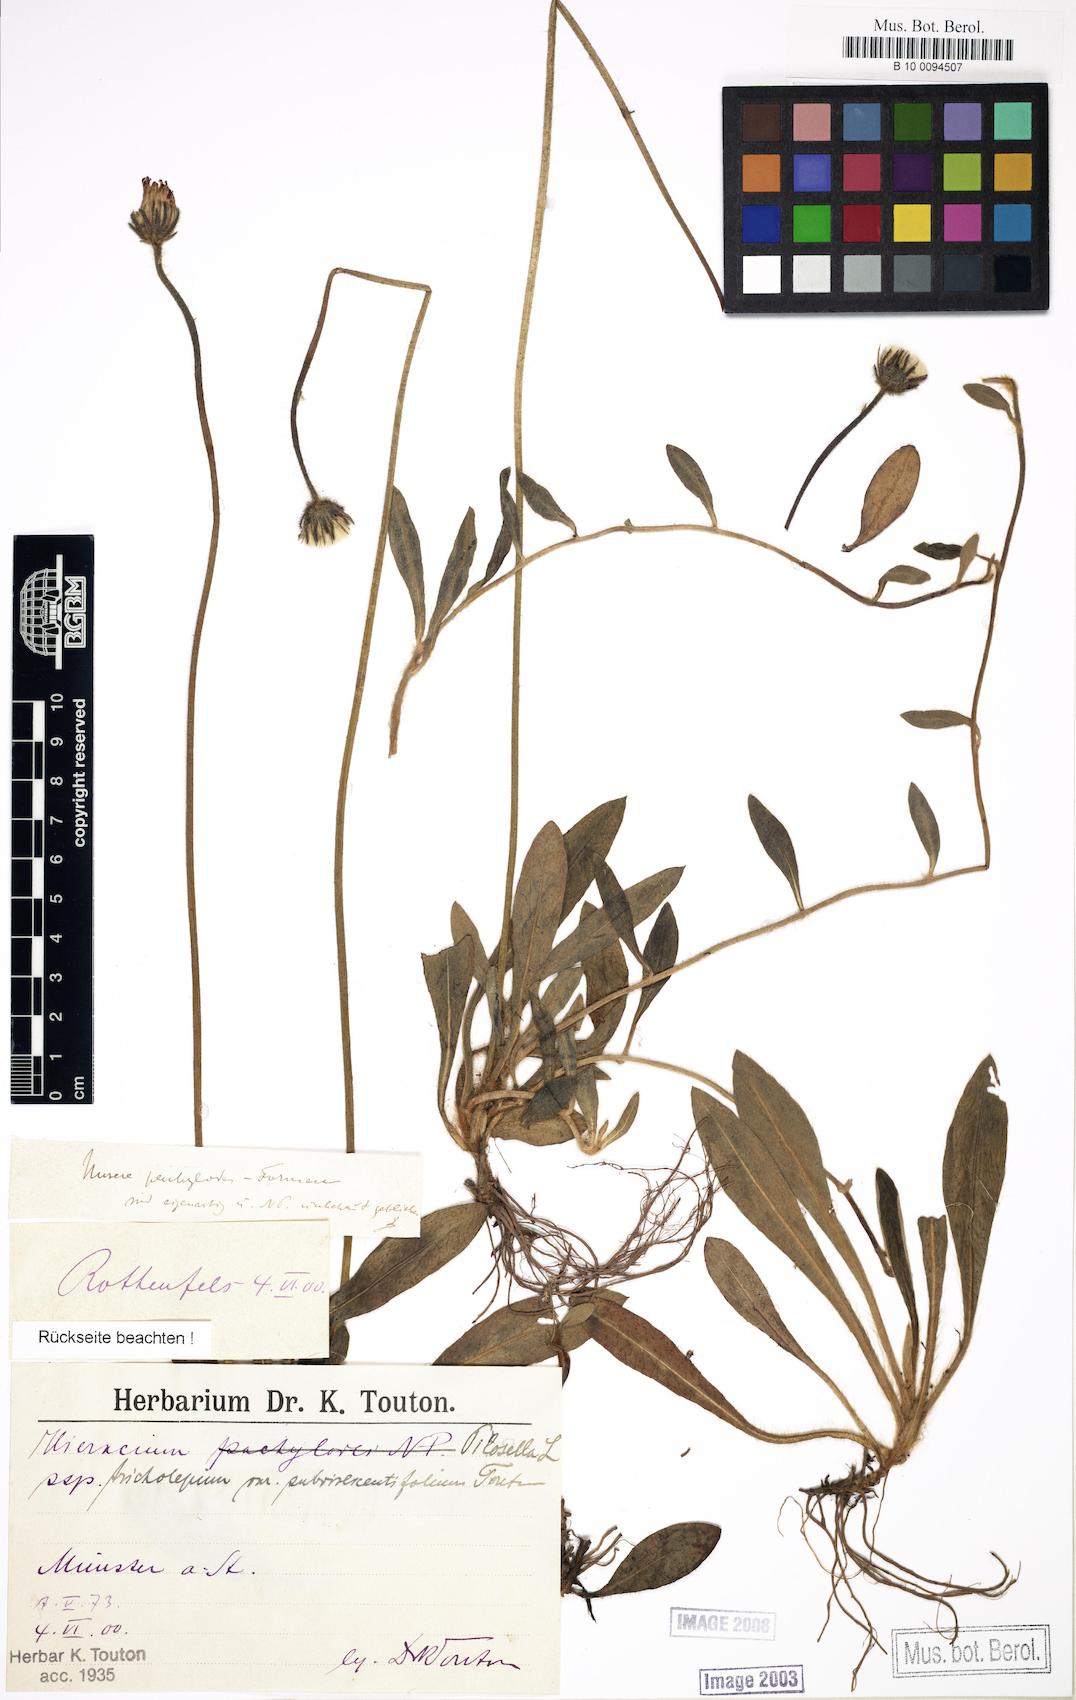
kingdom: Plantae
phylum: Tracheophyta
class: Magnoliopsida
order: Asterales
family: Asteraceae
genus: Pilosella
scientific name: Pilosella officinarum
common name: Mouse-ear hawkweed
